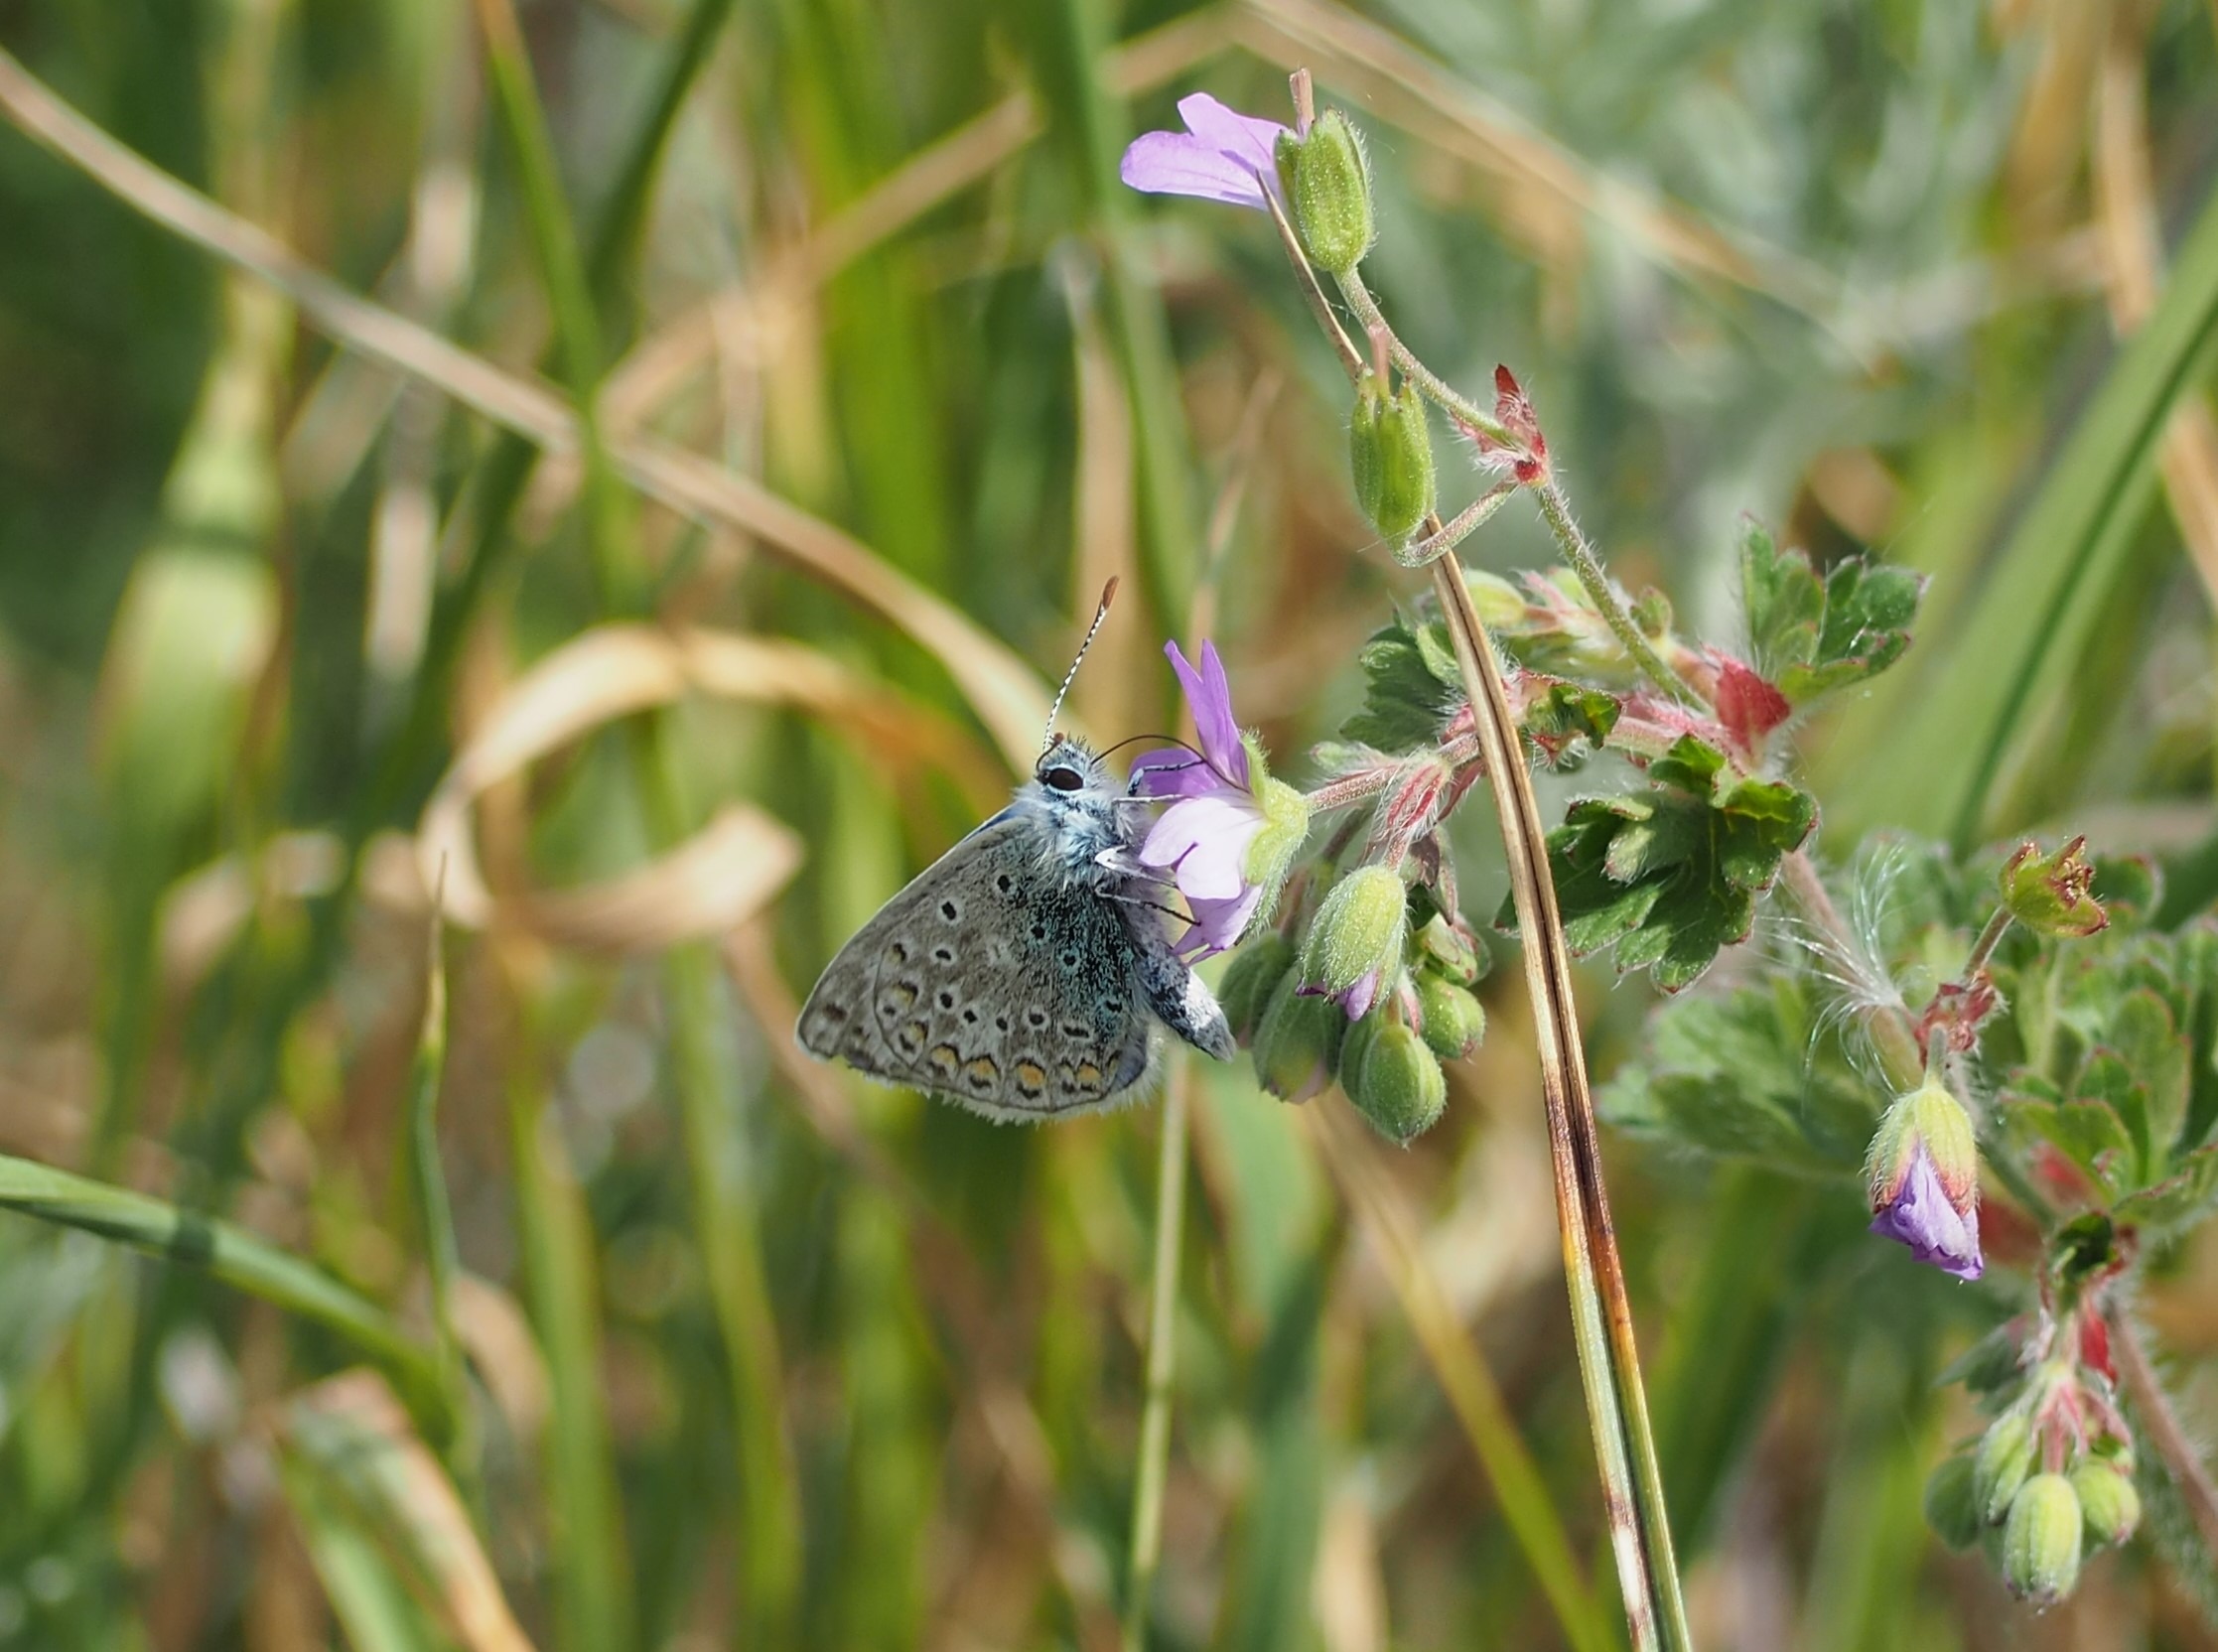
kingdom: Animalia
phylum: Arthropoda
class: Insecta
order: Lepidoptera
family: Lycaenidae
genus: Polyommatus
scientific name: Polyommatus icarus
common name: Almindelig blåfugl
